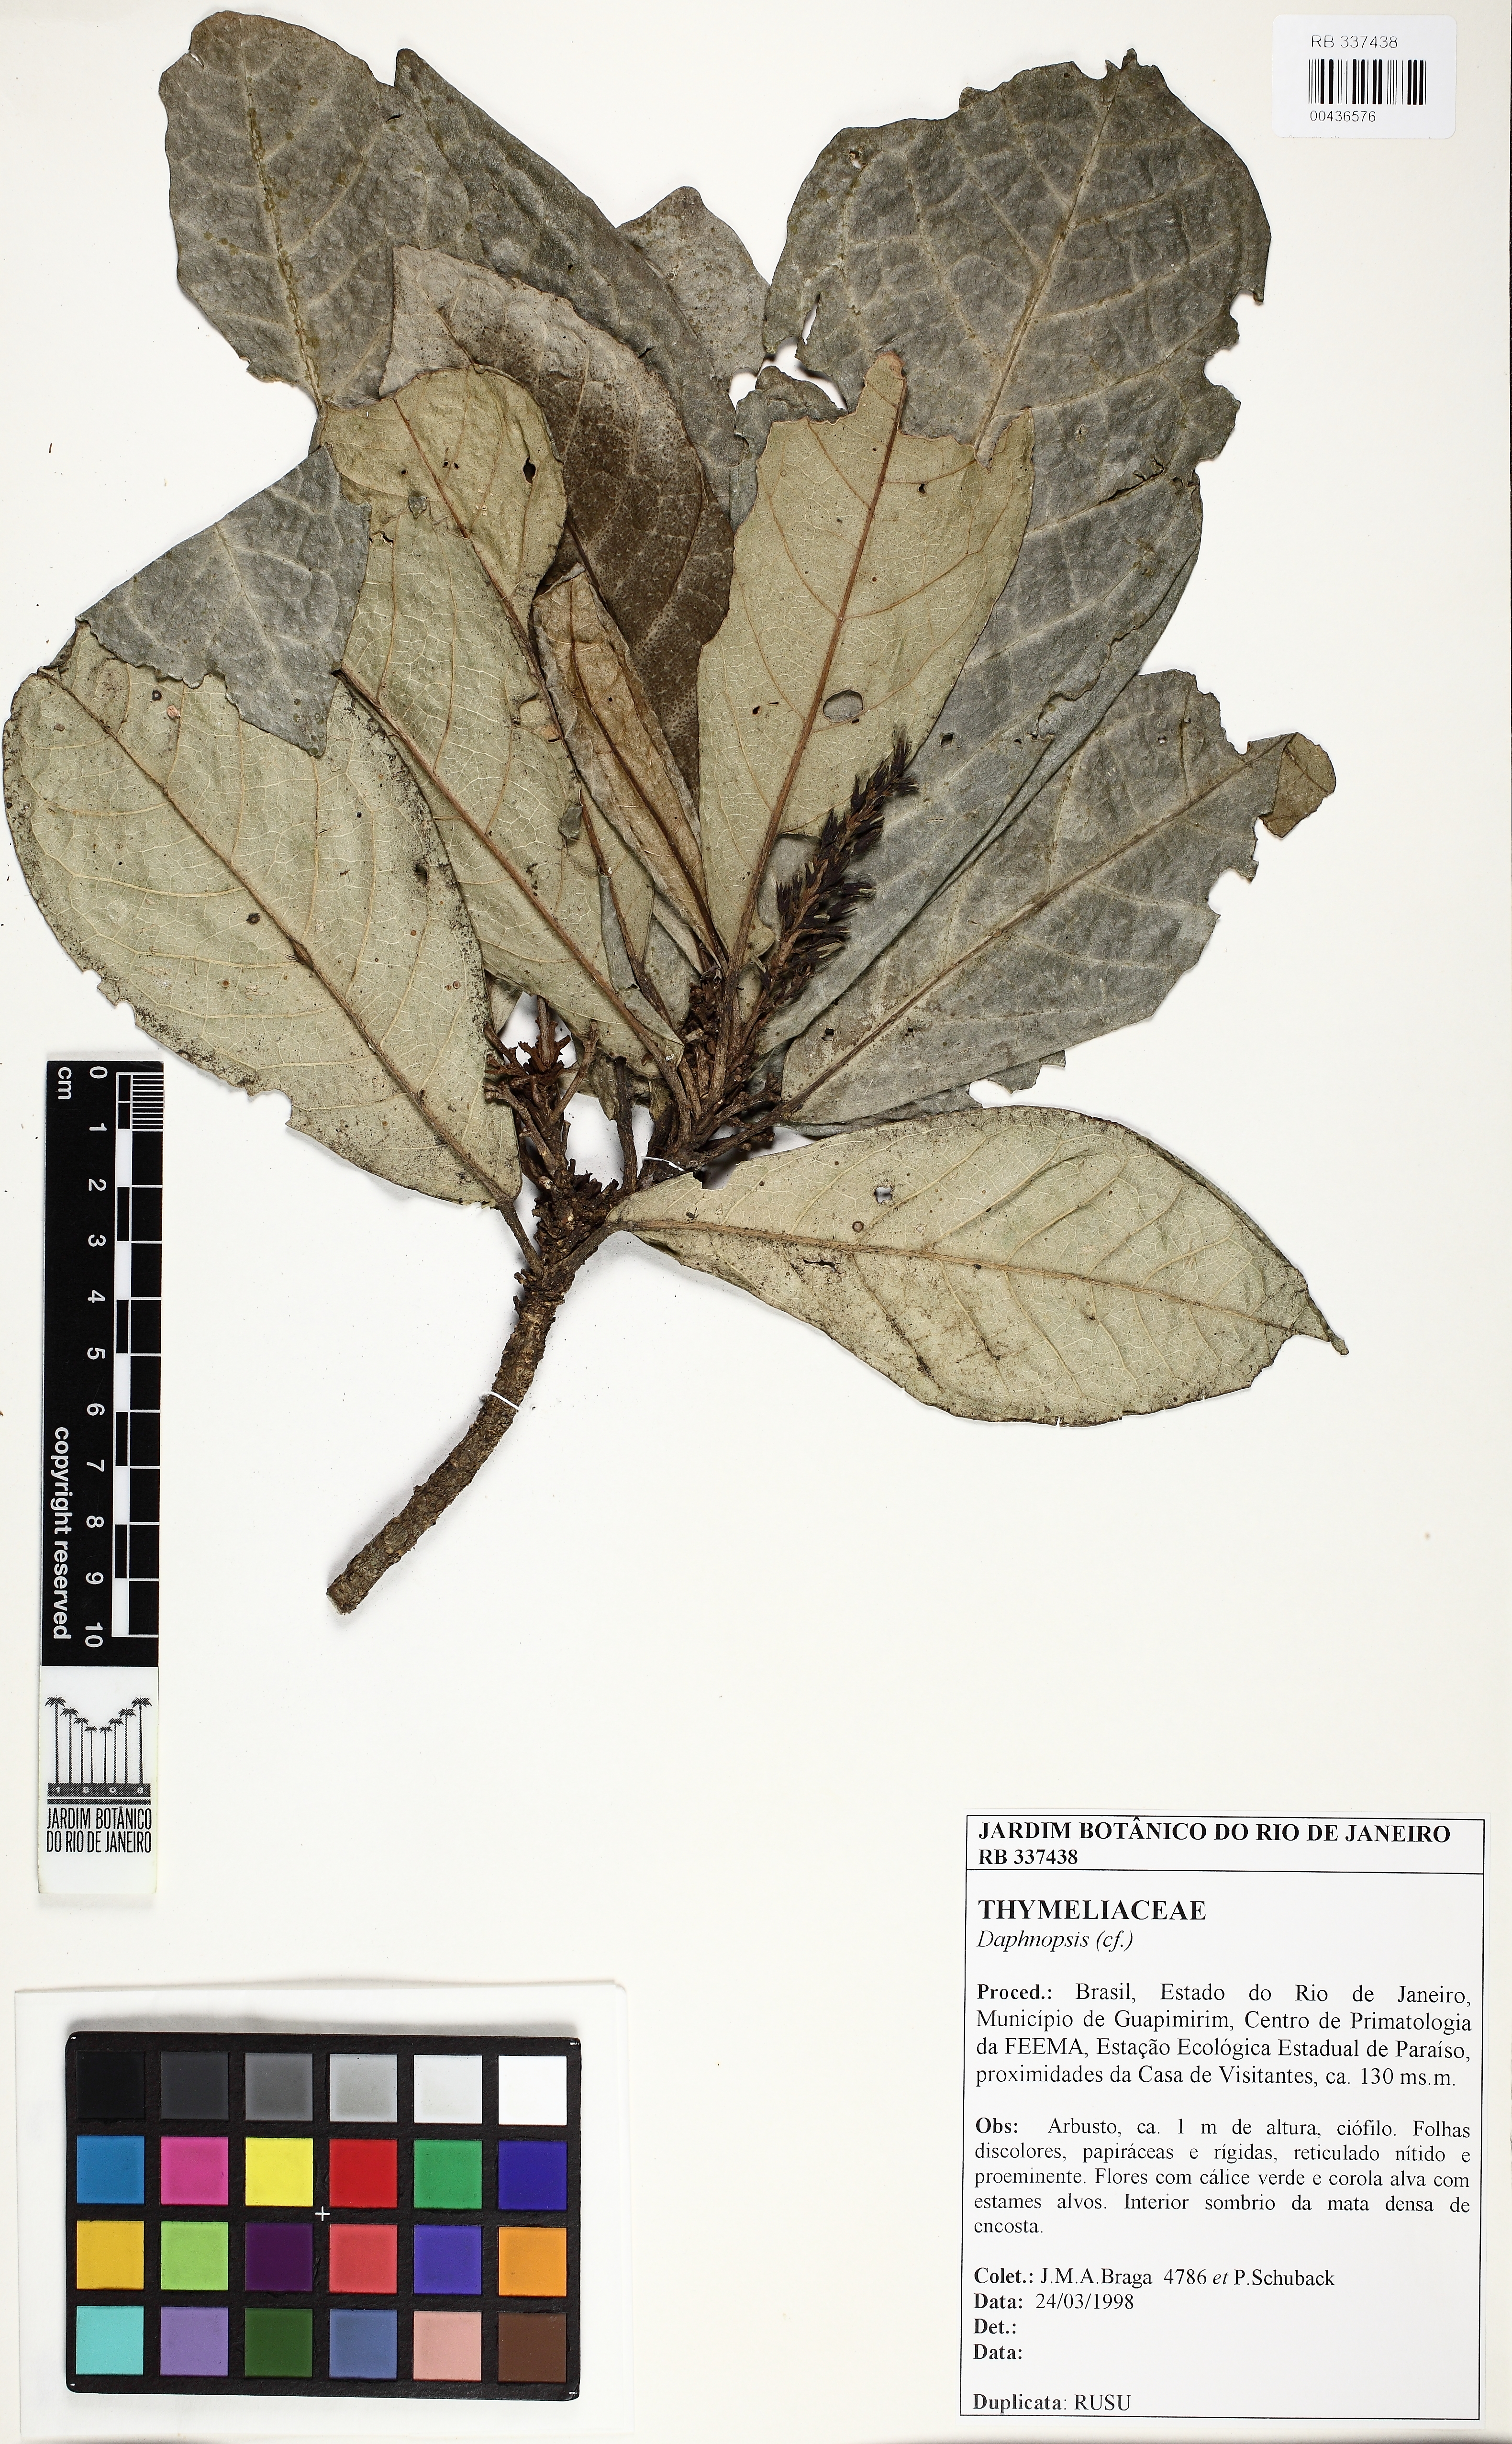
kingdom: Plantae
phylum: Tracheophyta
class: Magnoliopsida
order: Malvales
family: Thymelaeaceae
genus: Daphnopsis
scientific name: Daphnopsis
